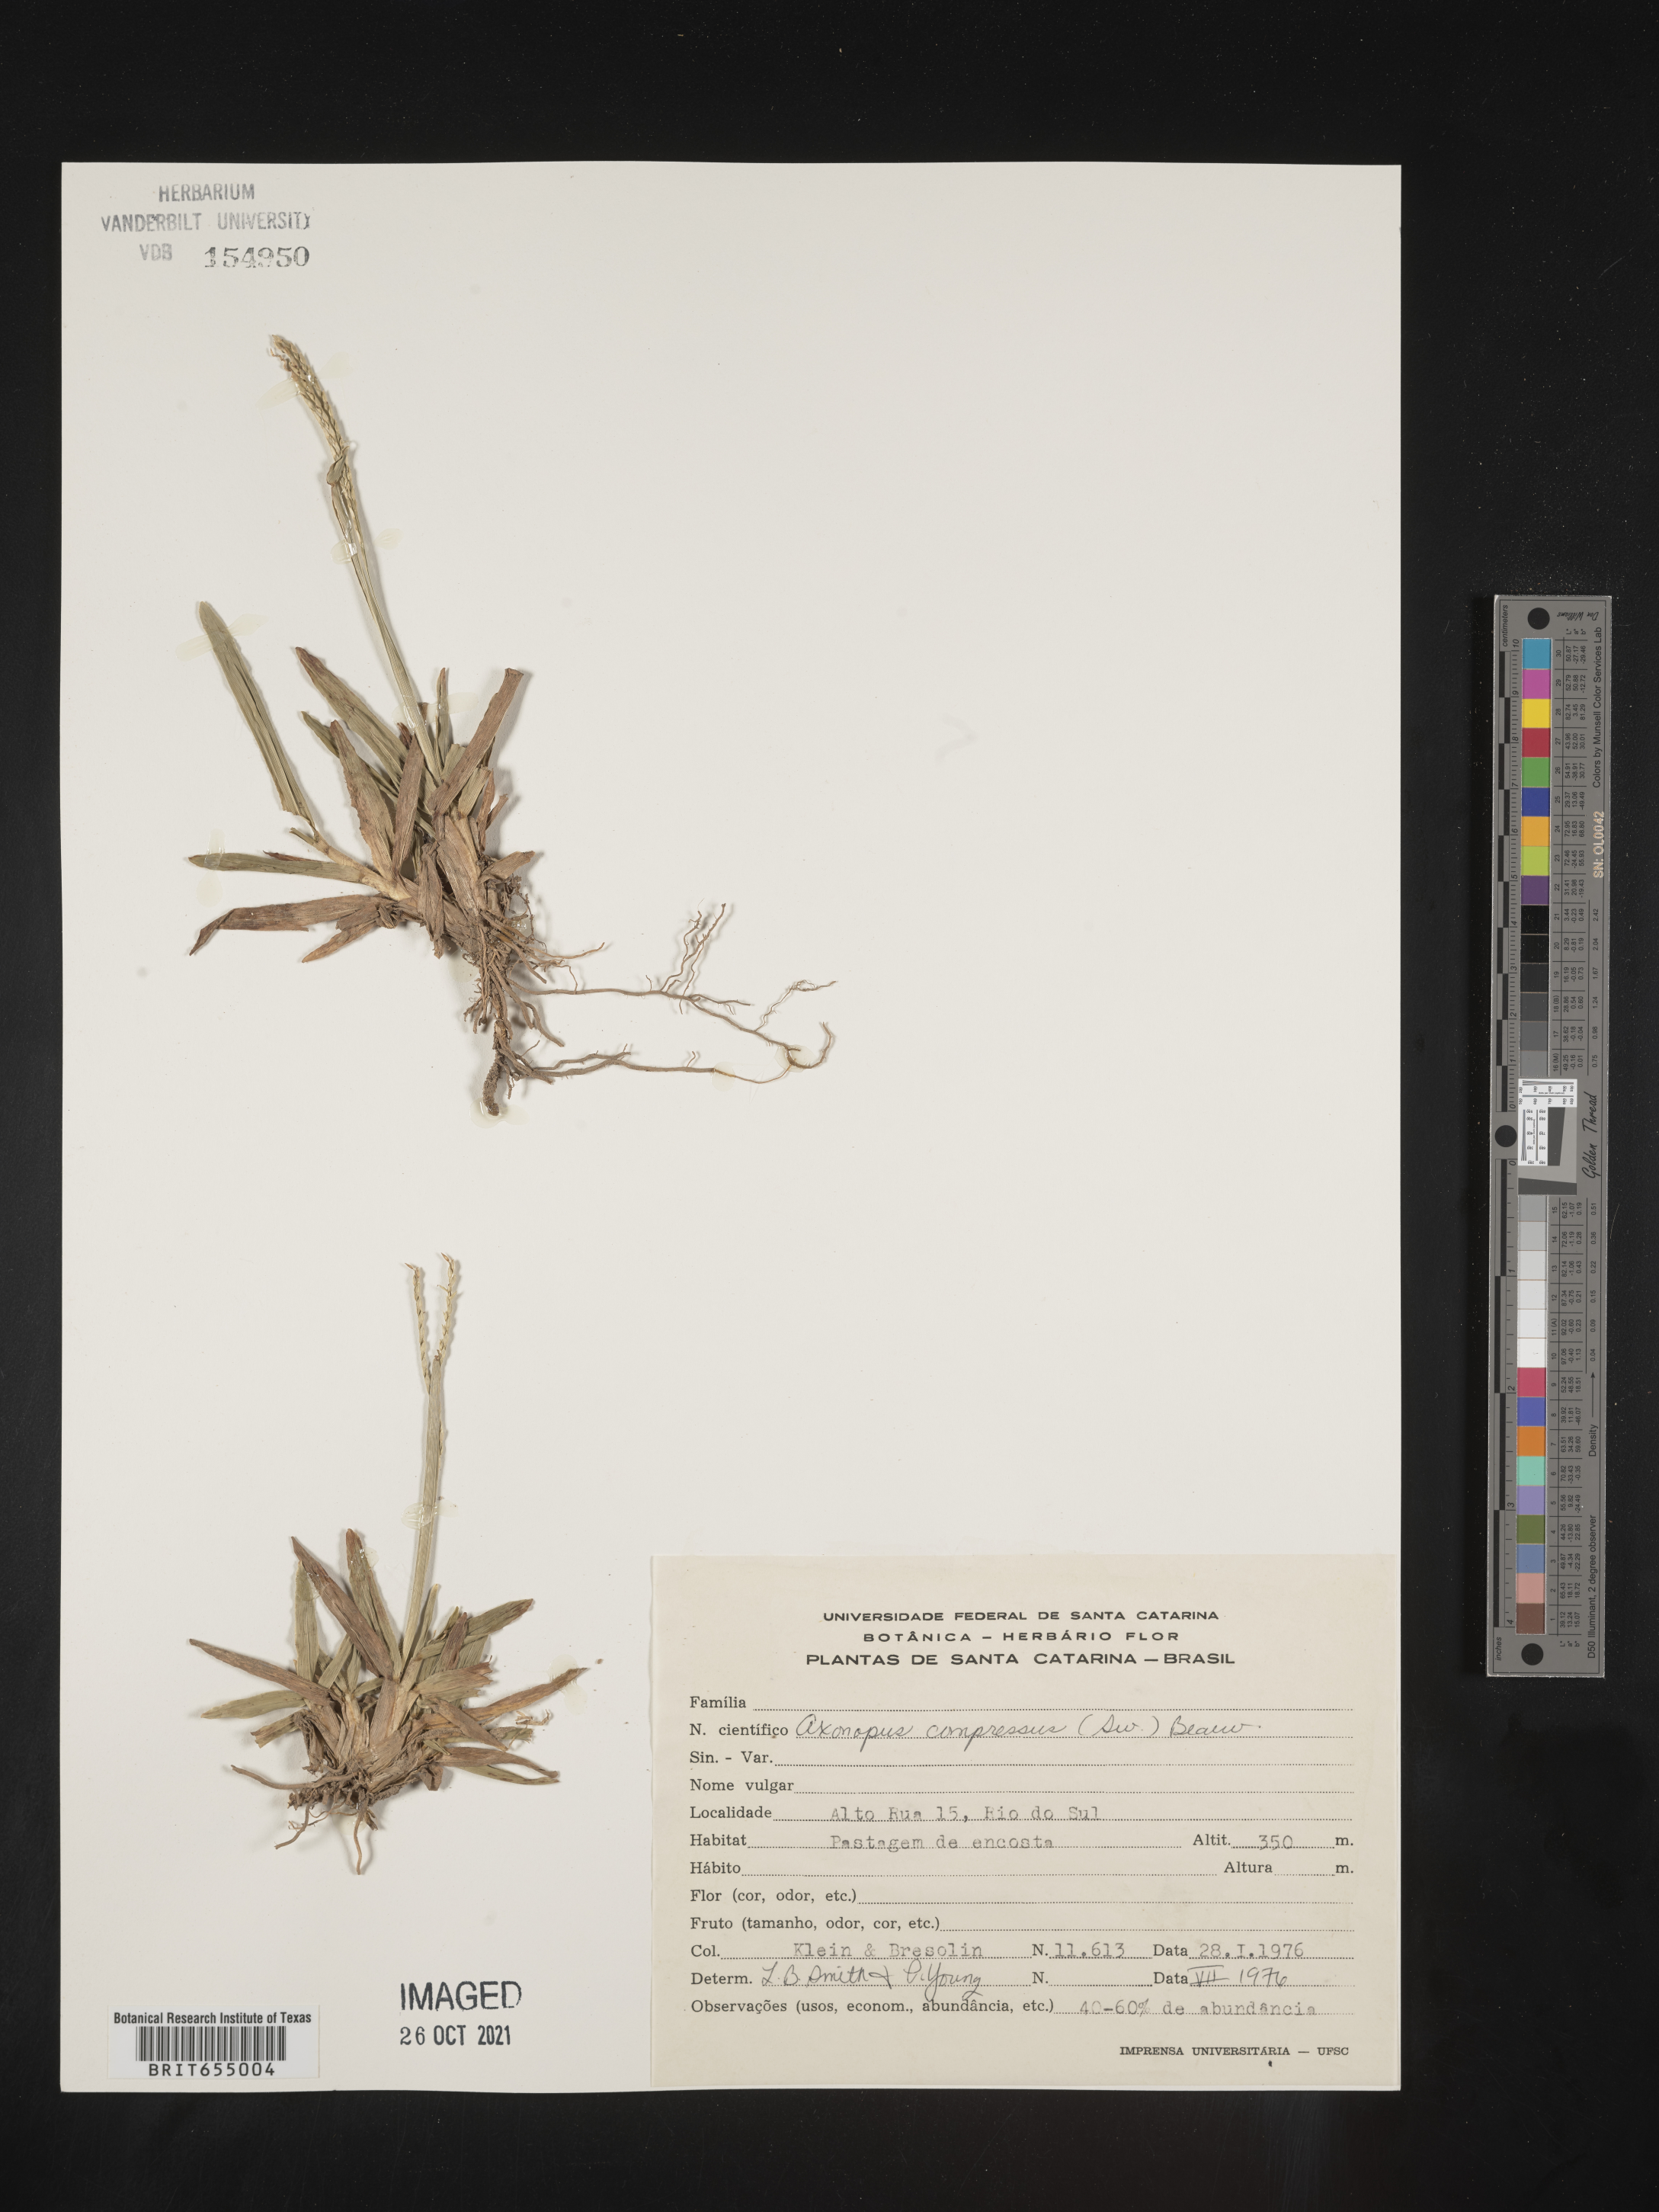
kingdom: Plantae
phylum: Tracheophyta
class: Liliopsida
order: Poales
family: Poaceae
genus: Axonopus
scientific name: Axonopus
